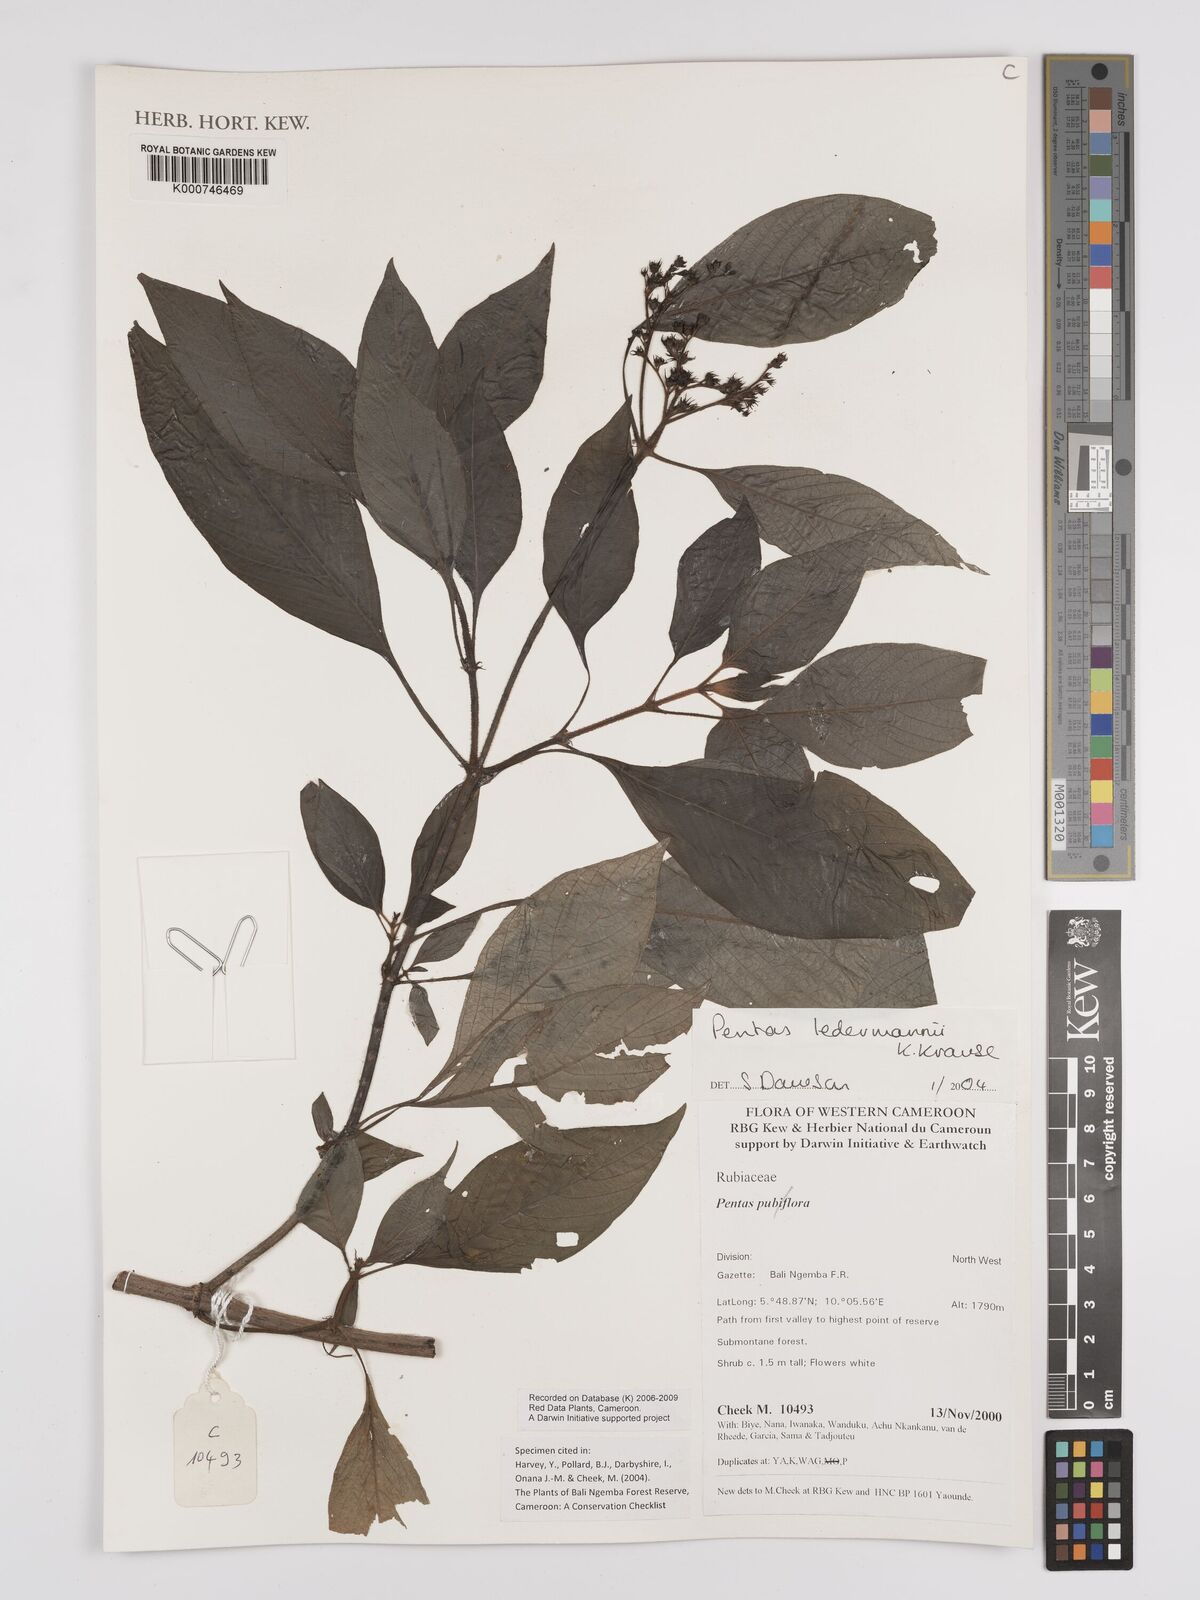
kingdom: Plantae
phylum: Tracheophyta
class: Magnoliopsida
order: Gentianales
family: Rubiaceae
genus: Phyllopentas
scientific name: Phyllopentas ledermannii
